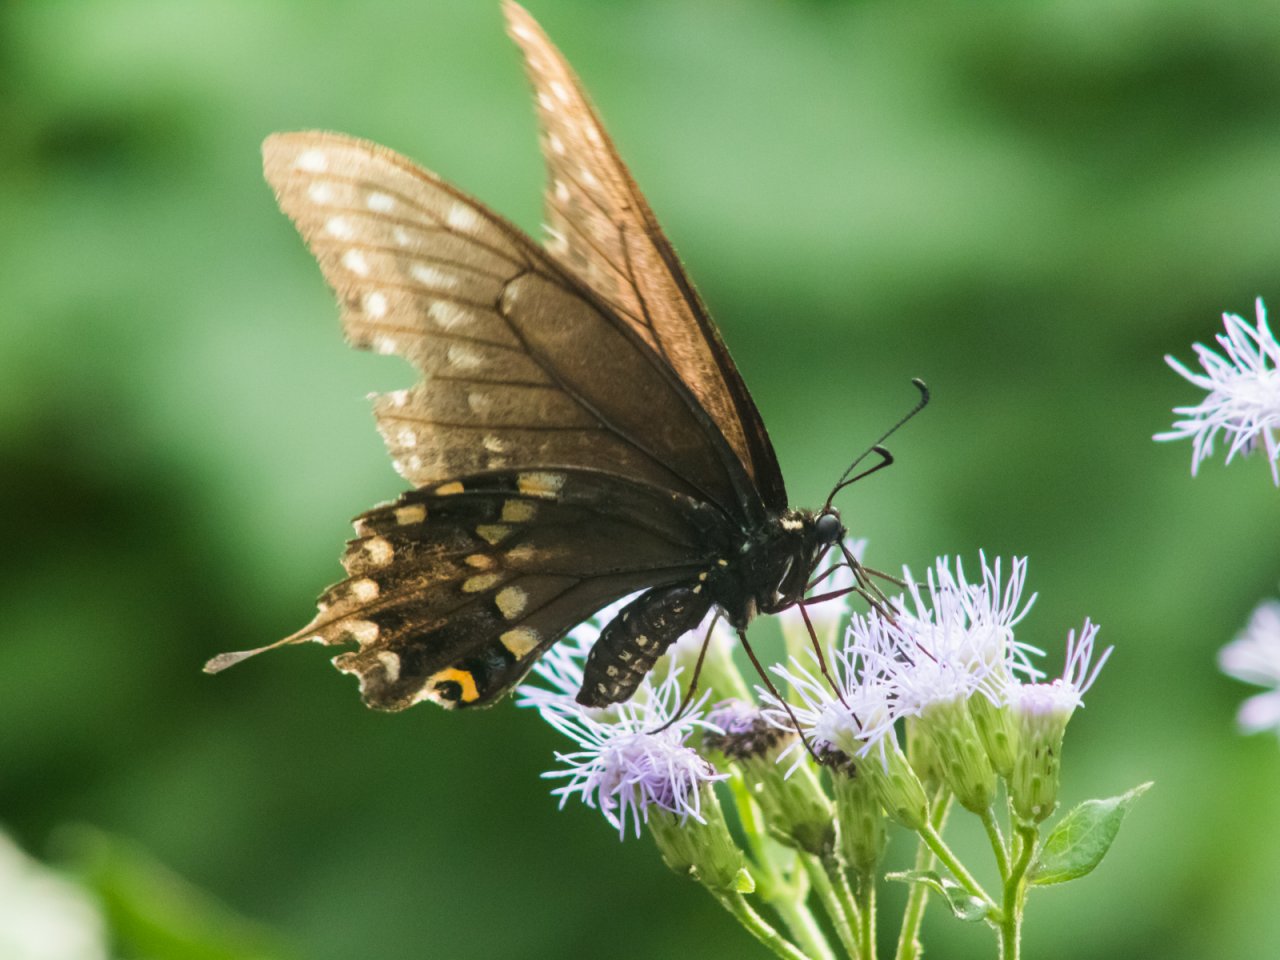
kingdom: Animalia
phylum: Arthropoda
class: Insecta
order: Lepidoptera
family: Papilionidae
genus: Papilio
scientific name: Papilio polyxenes
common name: Black Swallowtail
